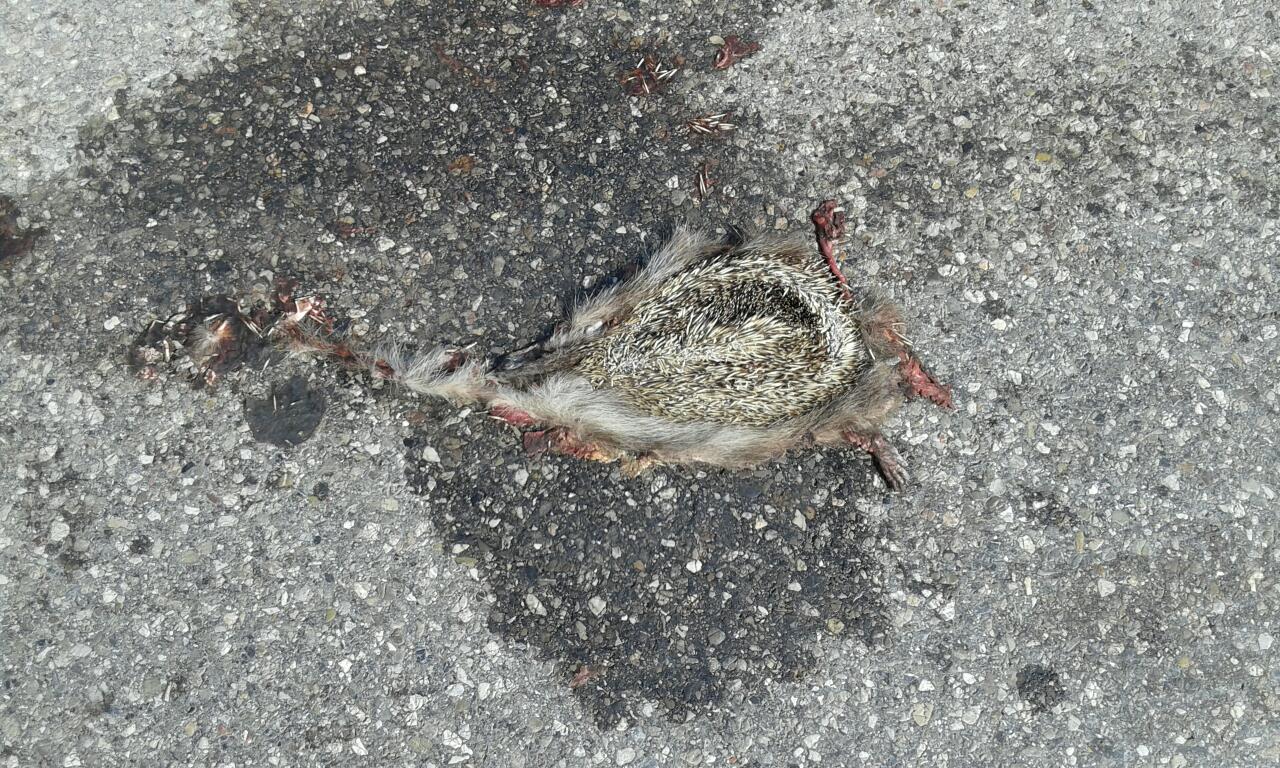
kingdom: Animalia
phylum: Chordata
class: Mammalia
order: Erinaceomorpha
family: Erinaceidae
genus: Erinaceus
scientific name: Erinaceus
